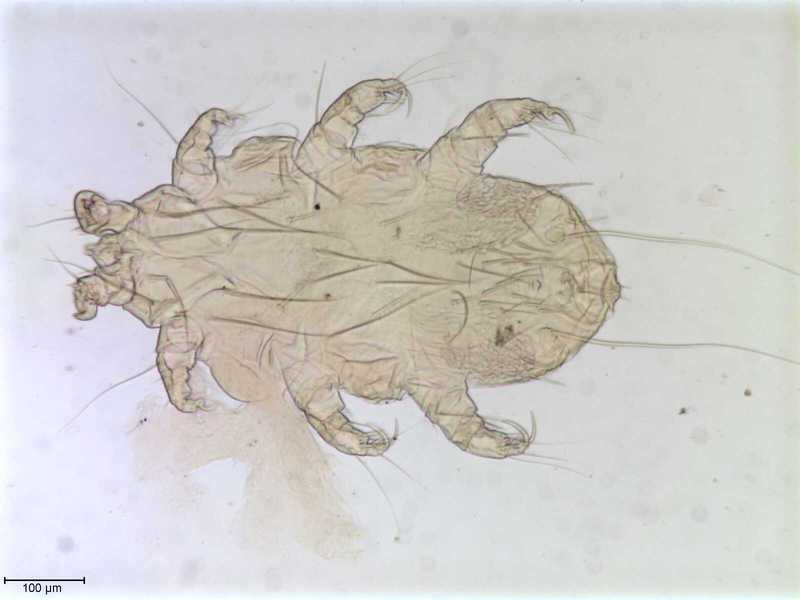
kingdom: Animalia
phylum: Arthropoda
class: Arachnida
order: Trombidiformes
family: Myobiidae
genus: Eadiea
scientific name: Eadiea
